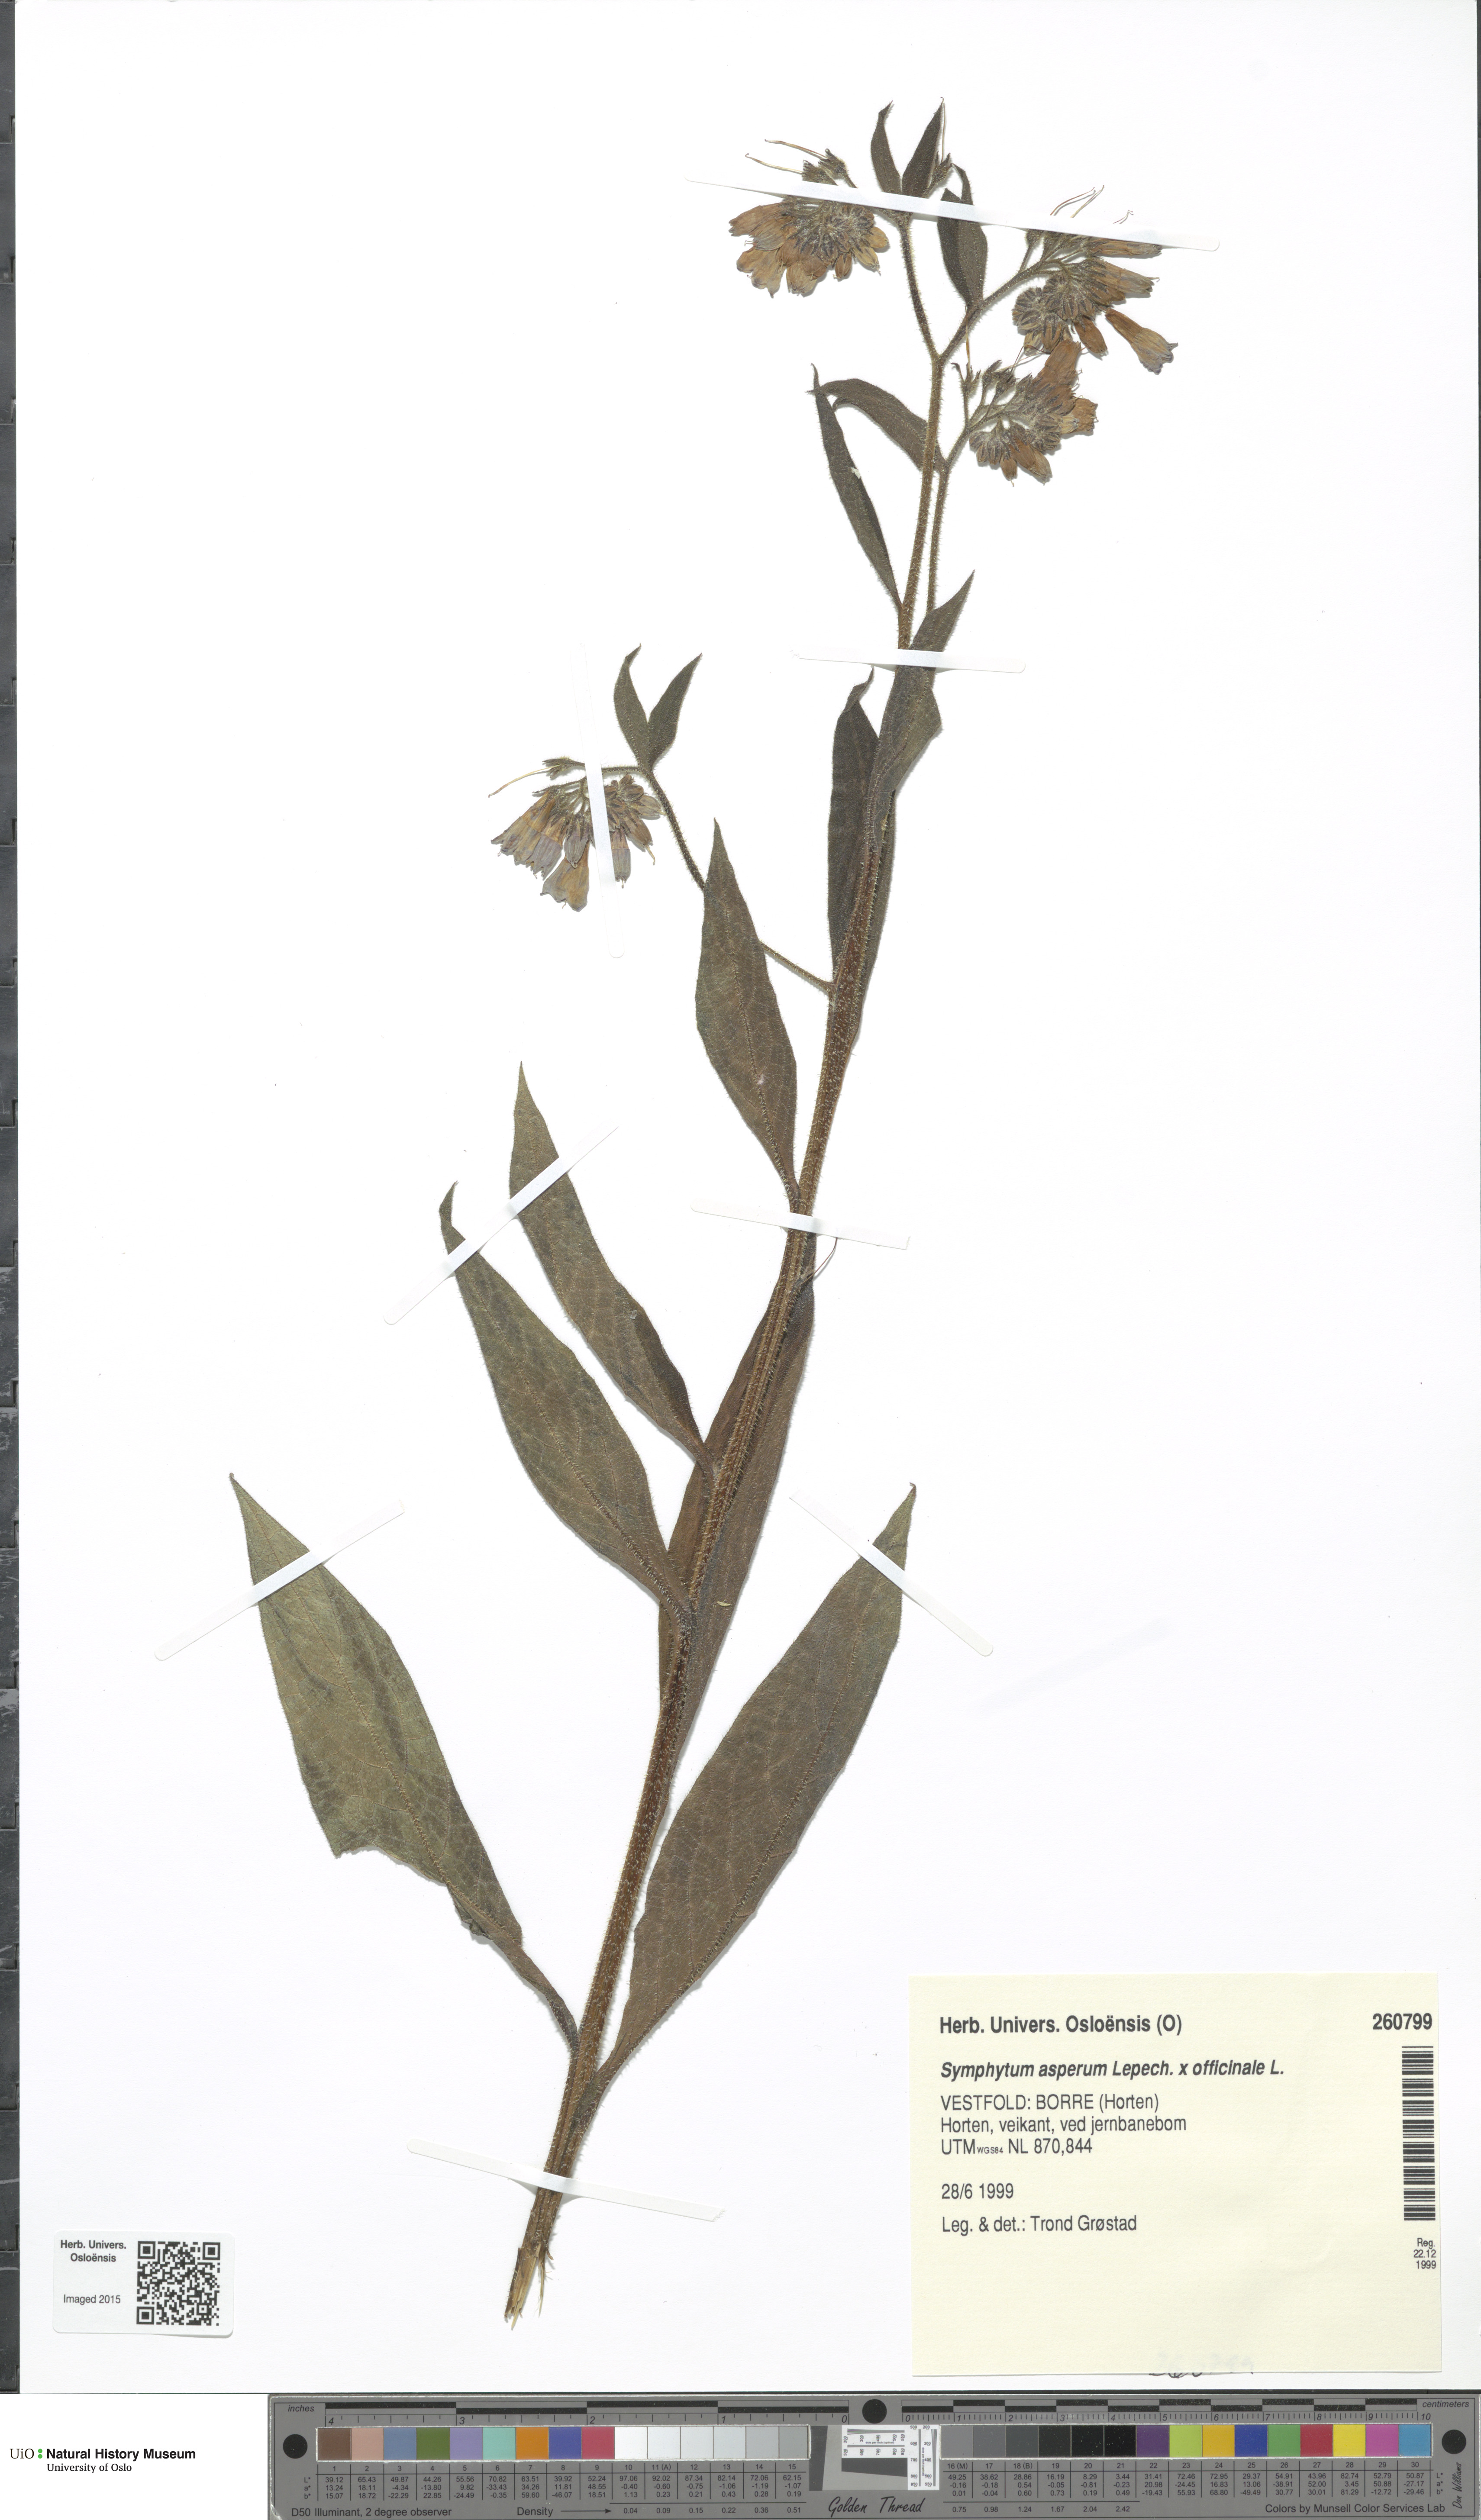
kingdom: Plantae
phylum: Tracheophyta
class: Magnoliopsida
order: Boraginales
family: Boraginaceae
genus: Symphytum
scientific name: Symphytum
